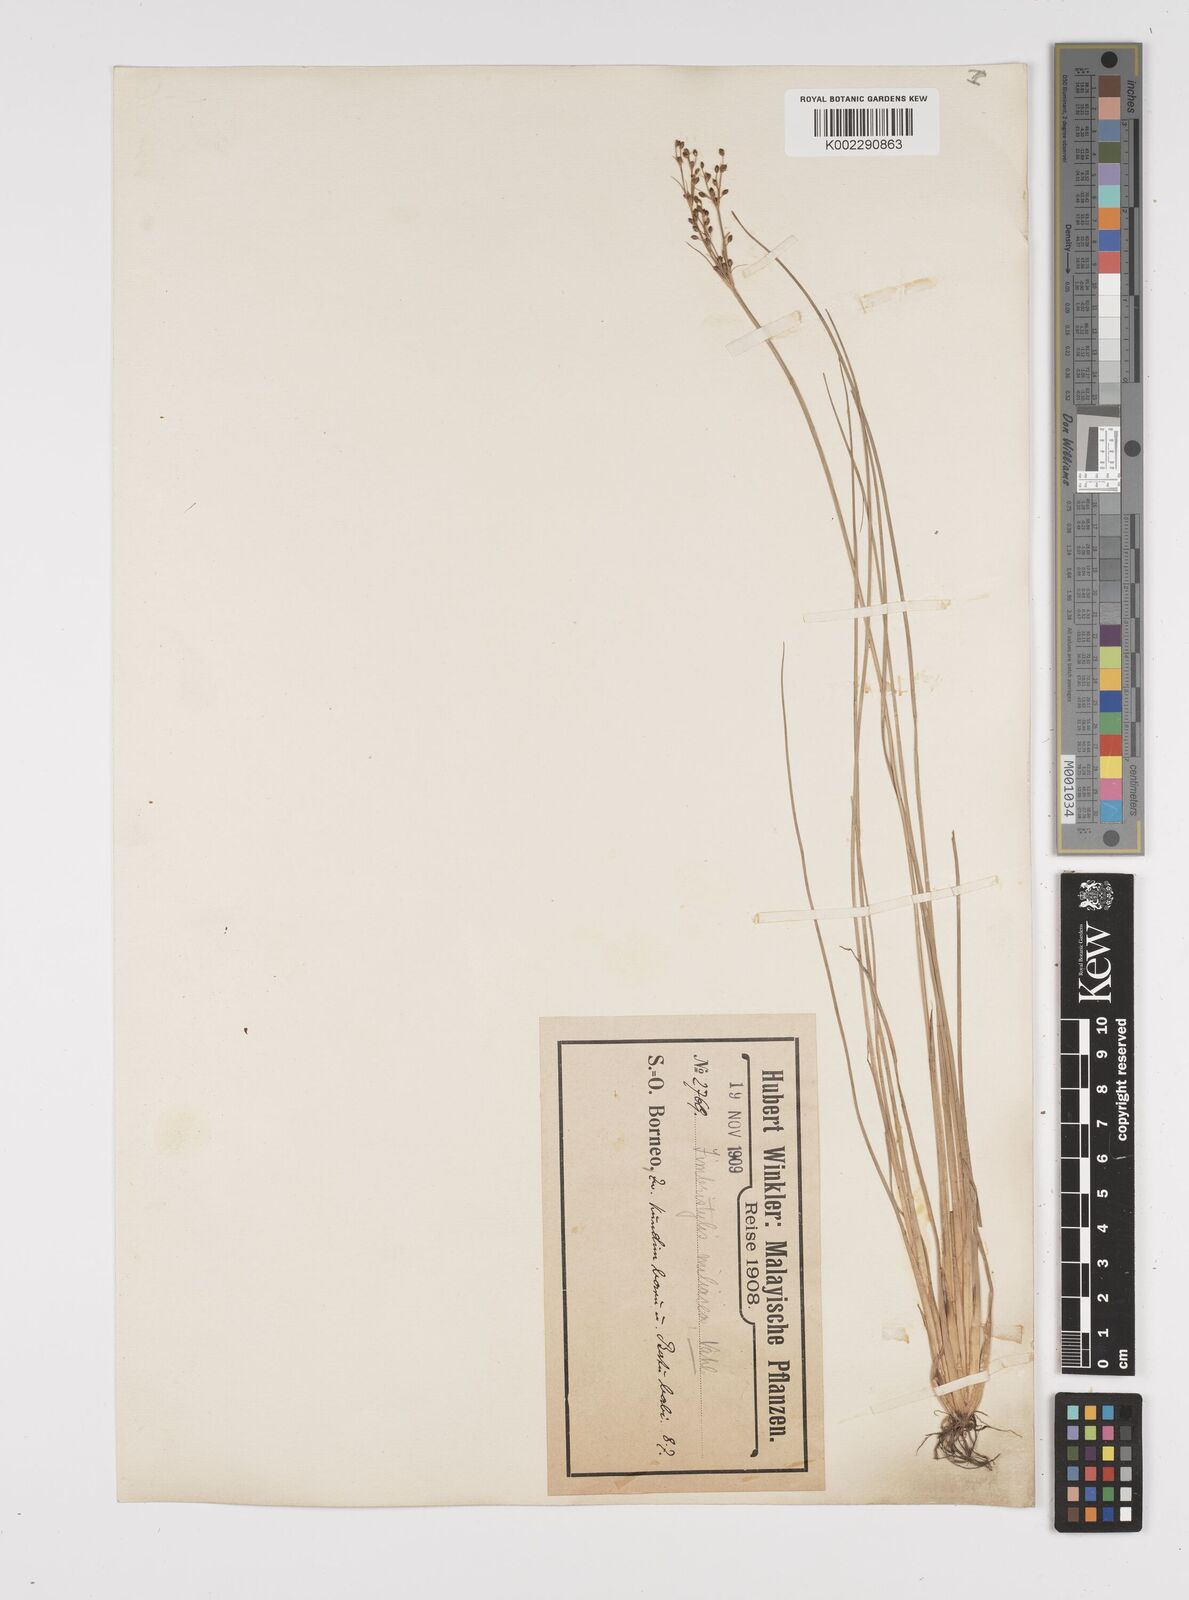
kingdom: Plantae
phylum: Tracheophyta
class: Liliopsida
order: Poales
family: Cyperaceae
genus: Fimbristylis
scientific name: Fimbristylis littoralis
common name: Fimbry
